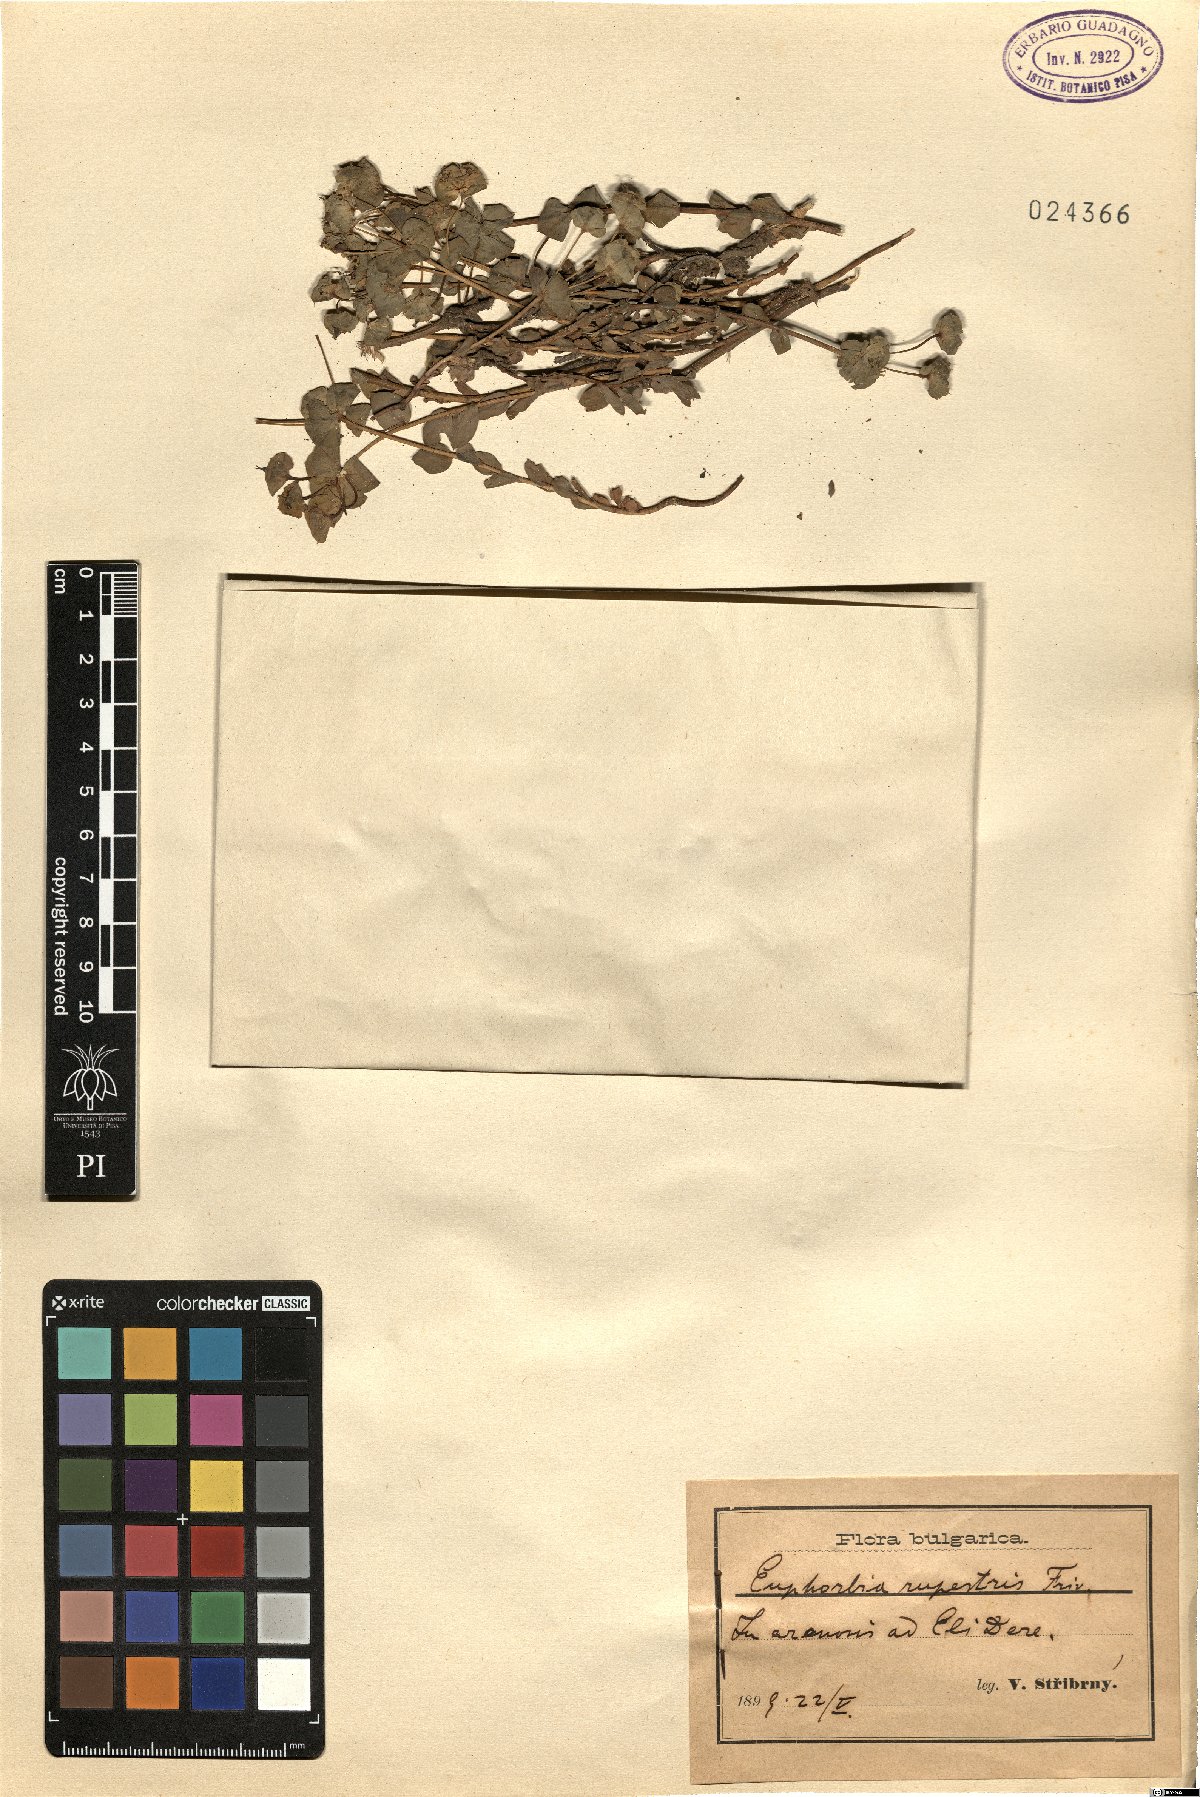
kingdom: Plantae
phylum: Tracheophyta
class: Magnoliopsida
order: Malpighiales
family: Euphorbiaceae
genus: Euphorbia
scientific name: Euphorbia rupestris
